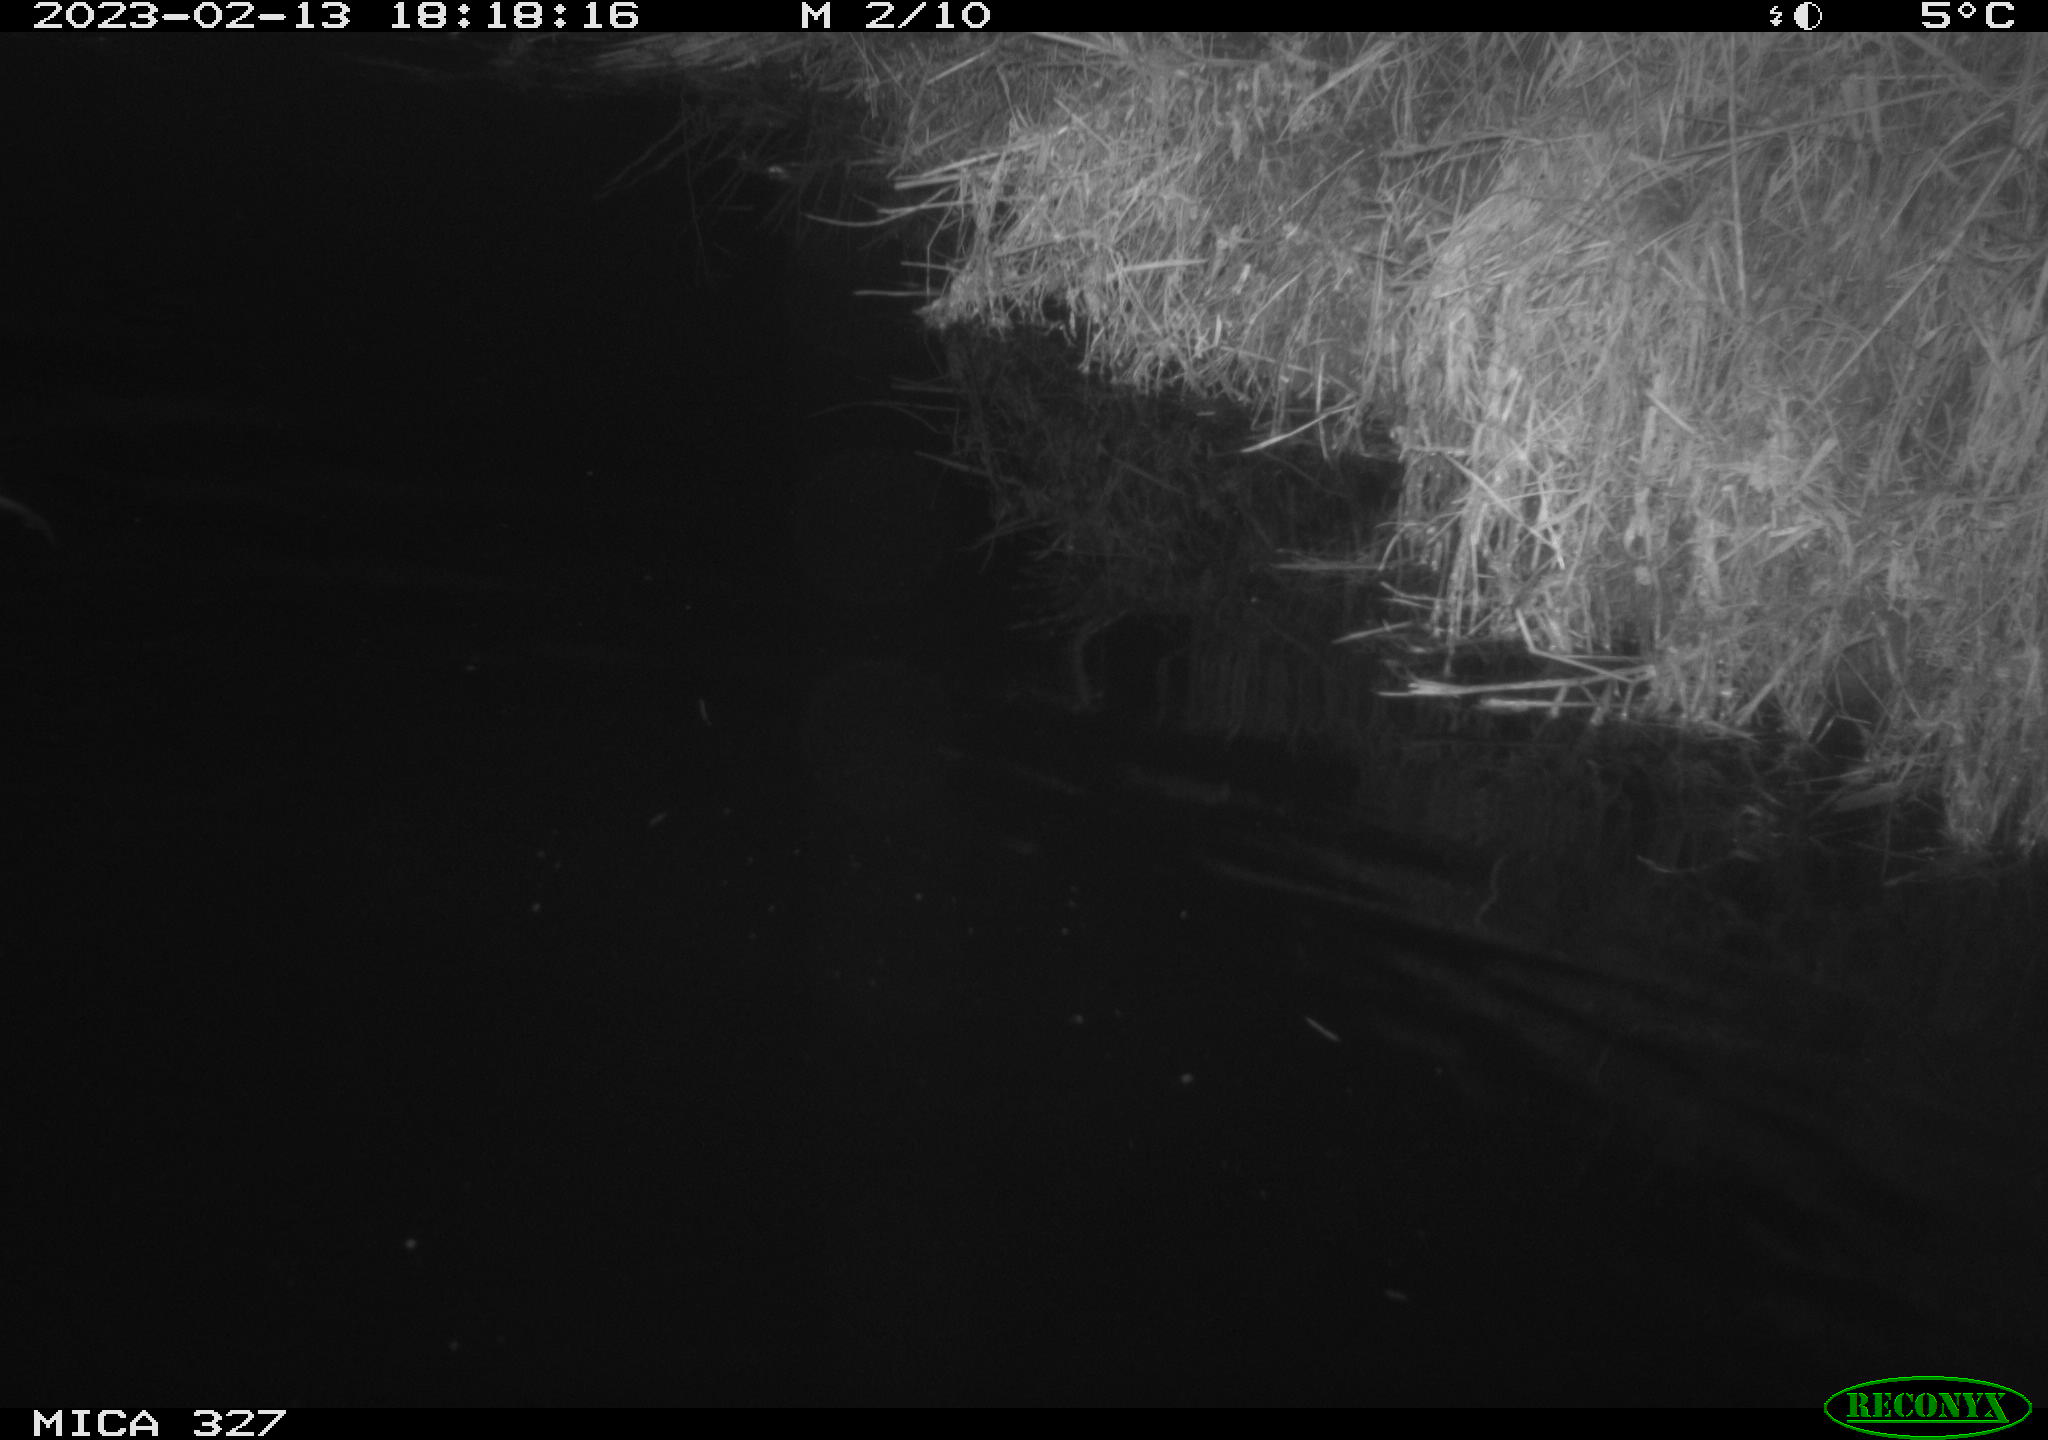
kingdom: Animalia
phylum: Chordata
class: Mammalia
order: Rodentia
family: Cricetidae
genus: Ondatra
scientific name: Ondatra zibethicus
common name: Muskrat
